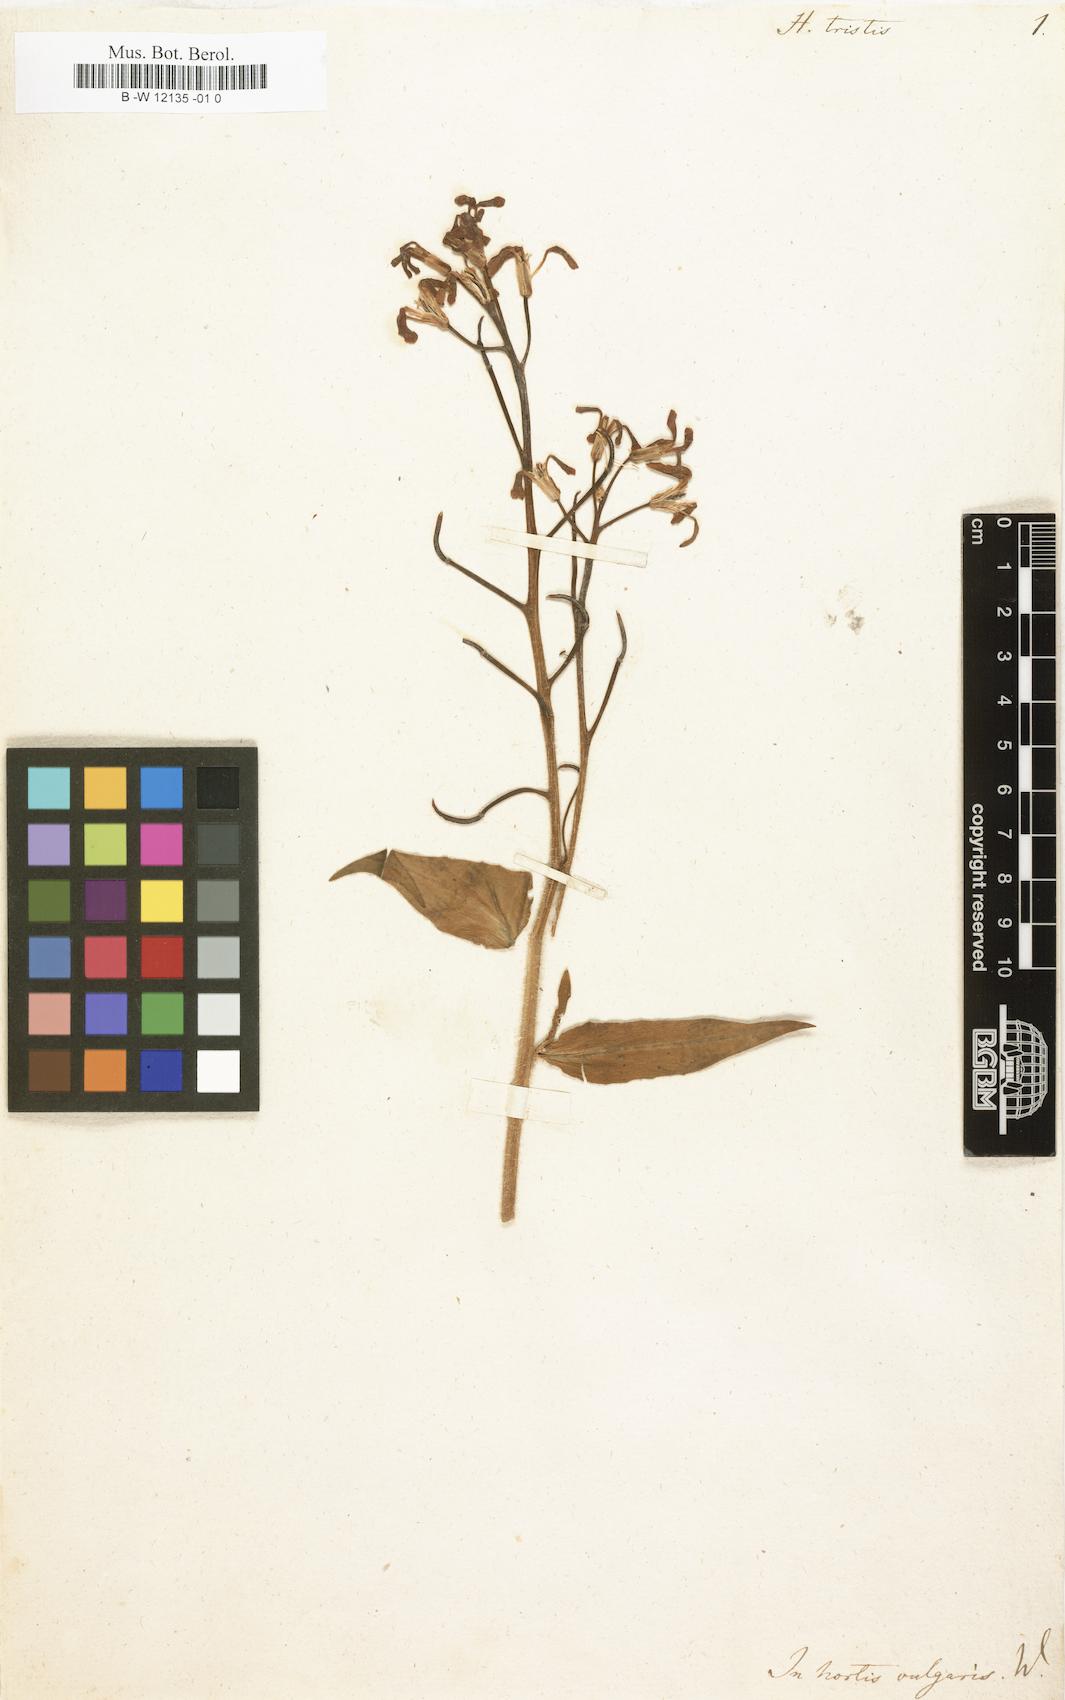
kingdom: Plantae
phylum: Tracheophyta
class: Magnoliopsida
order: Brassicales
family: Brassicaceae
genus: Hesperis
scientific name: Hesperis tristis
